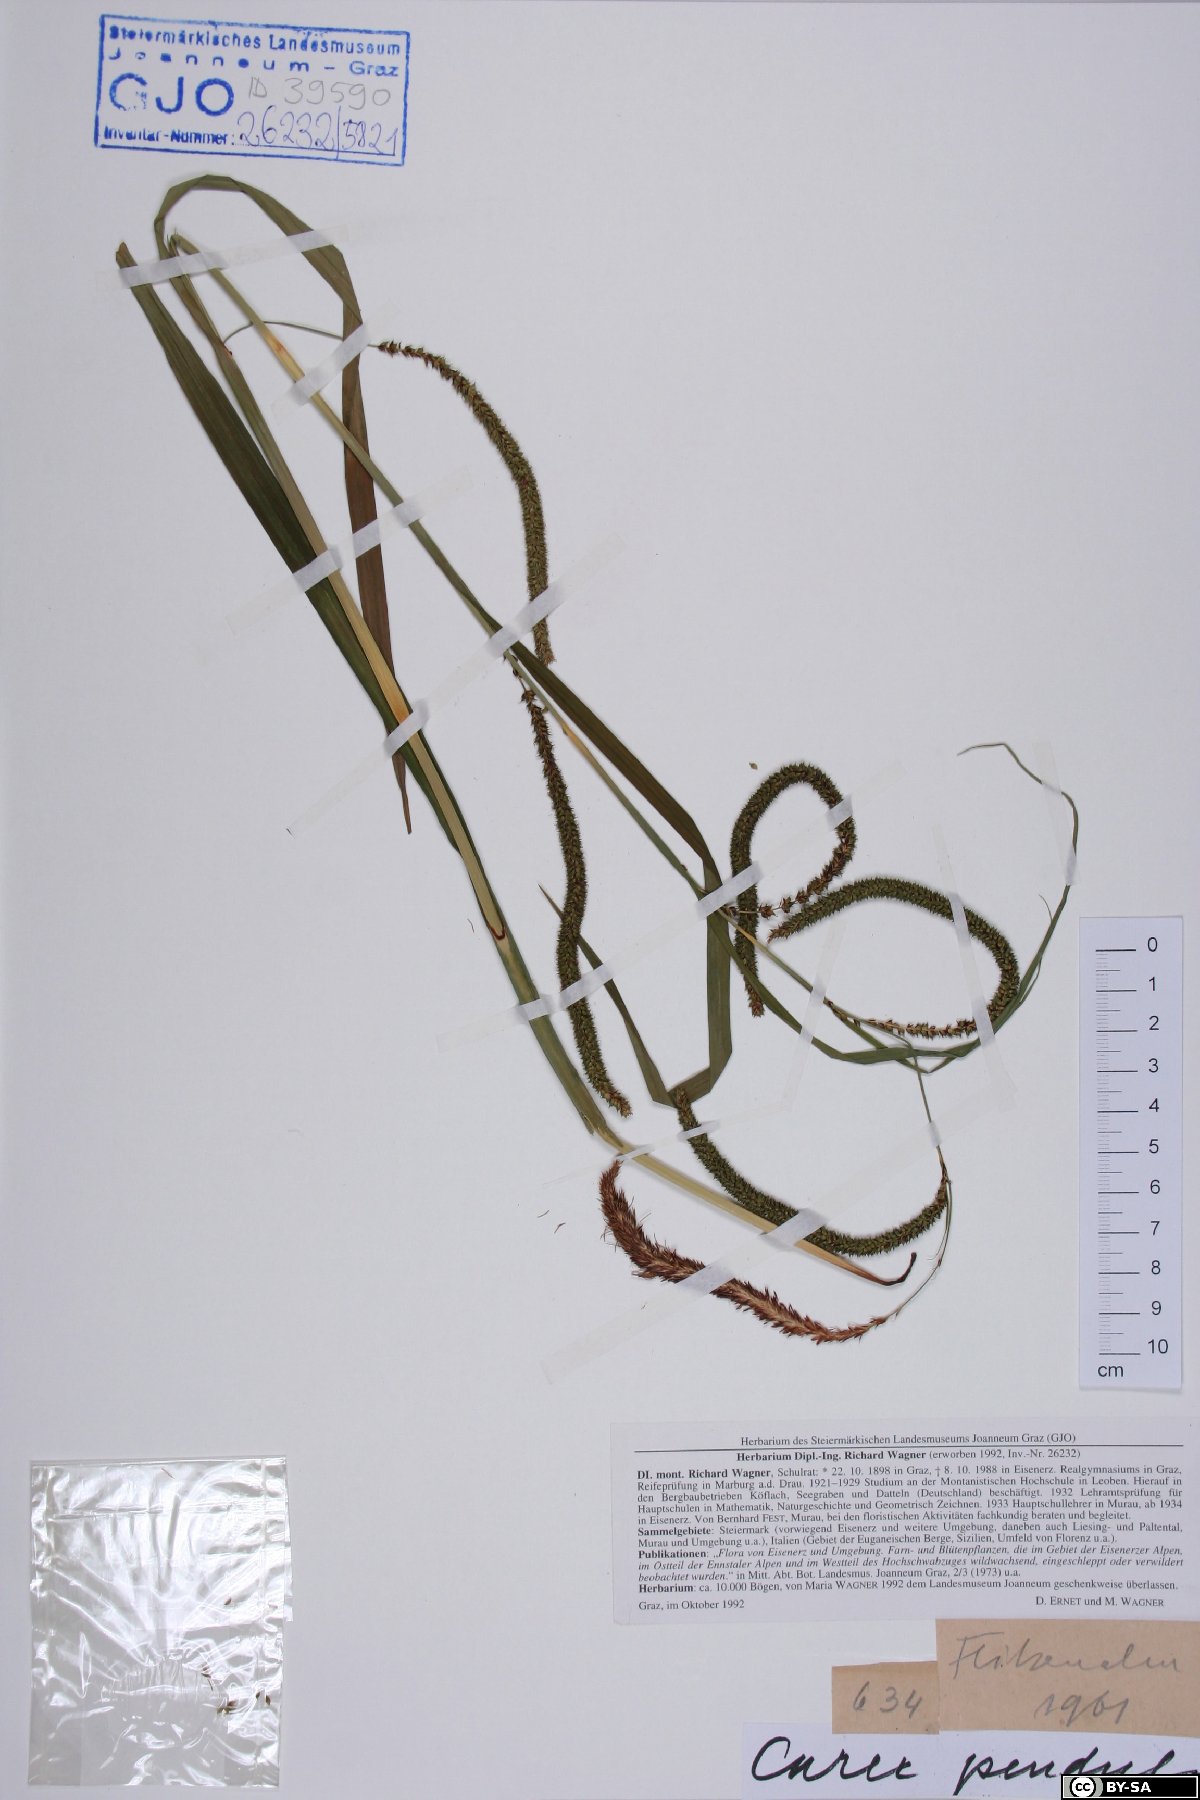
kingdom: Plantae
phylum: Tracheophyta
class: Liliopsida
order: Poales
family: Cyperaceae
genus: Carex
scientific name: Carex pendula
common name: Pendulous sedge
